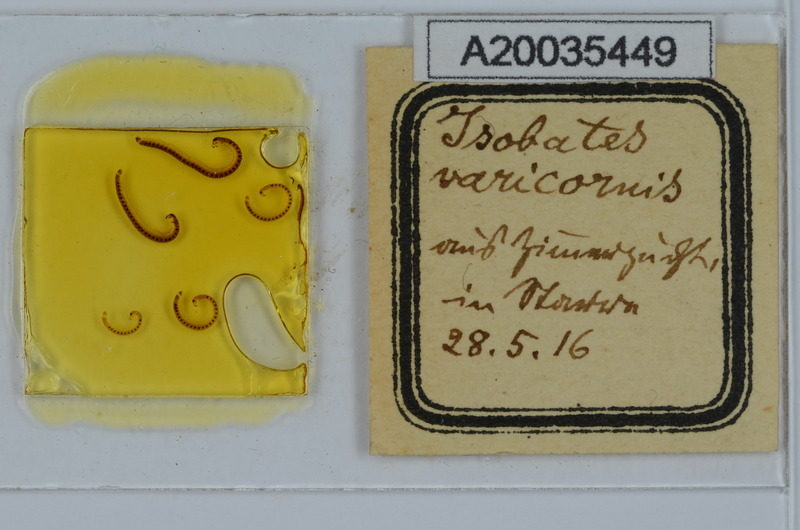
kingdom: Animalia
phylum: Arthropoda
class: Diplopoda
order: Julida
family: Nemasomatidae
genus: Isobates
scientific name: Isobates varicornis
